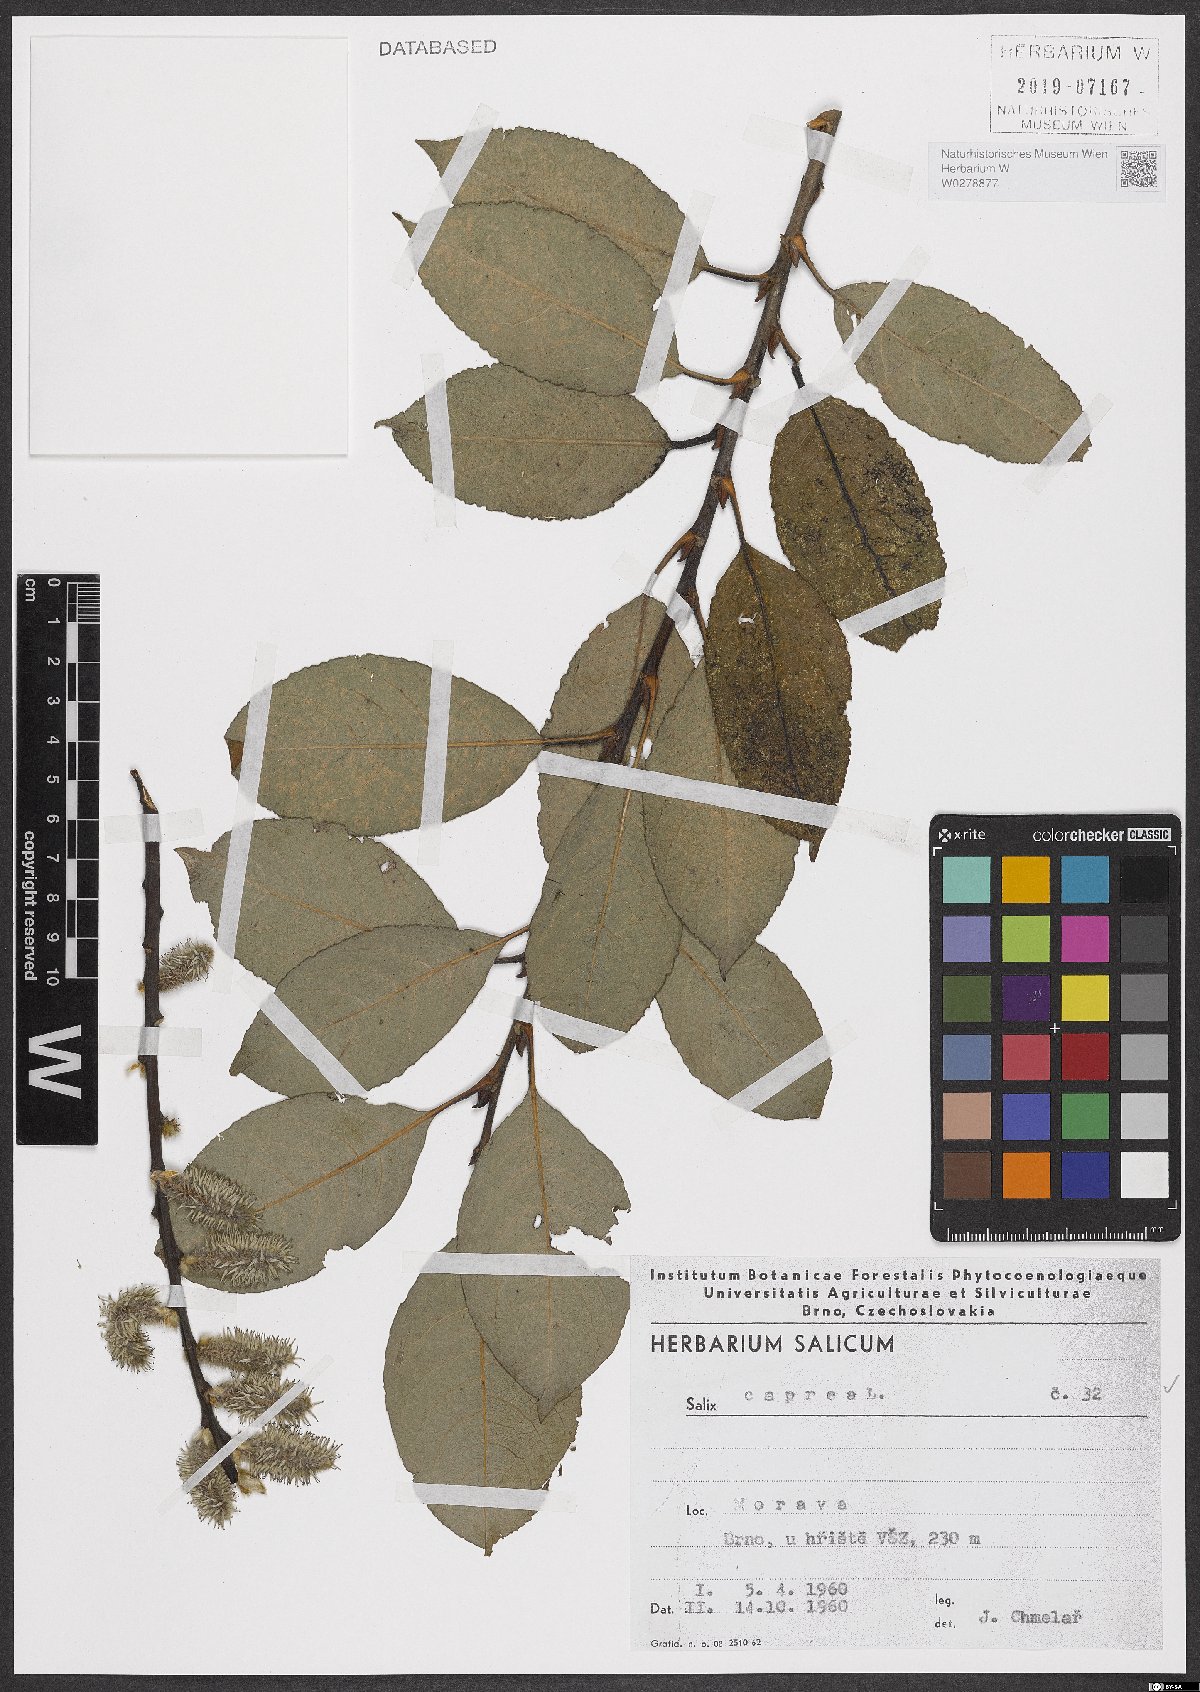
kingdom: Plantae
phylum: Tracheophyta
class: Magnoliopsida
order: Malpighiales
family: Salicaceae
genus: Salix
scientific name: Salix caprea
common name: Goat willow
